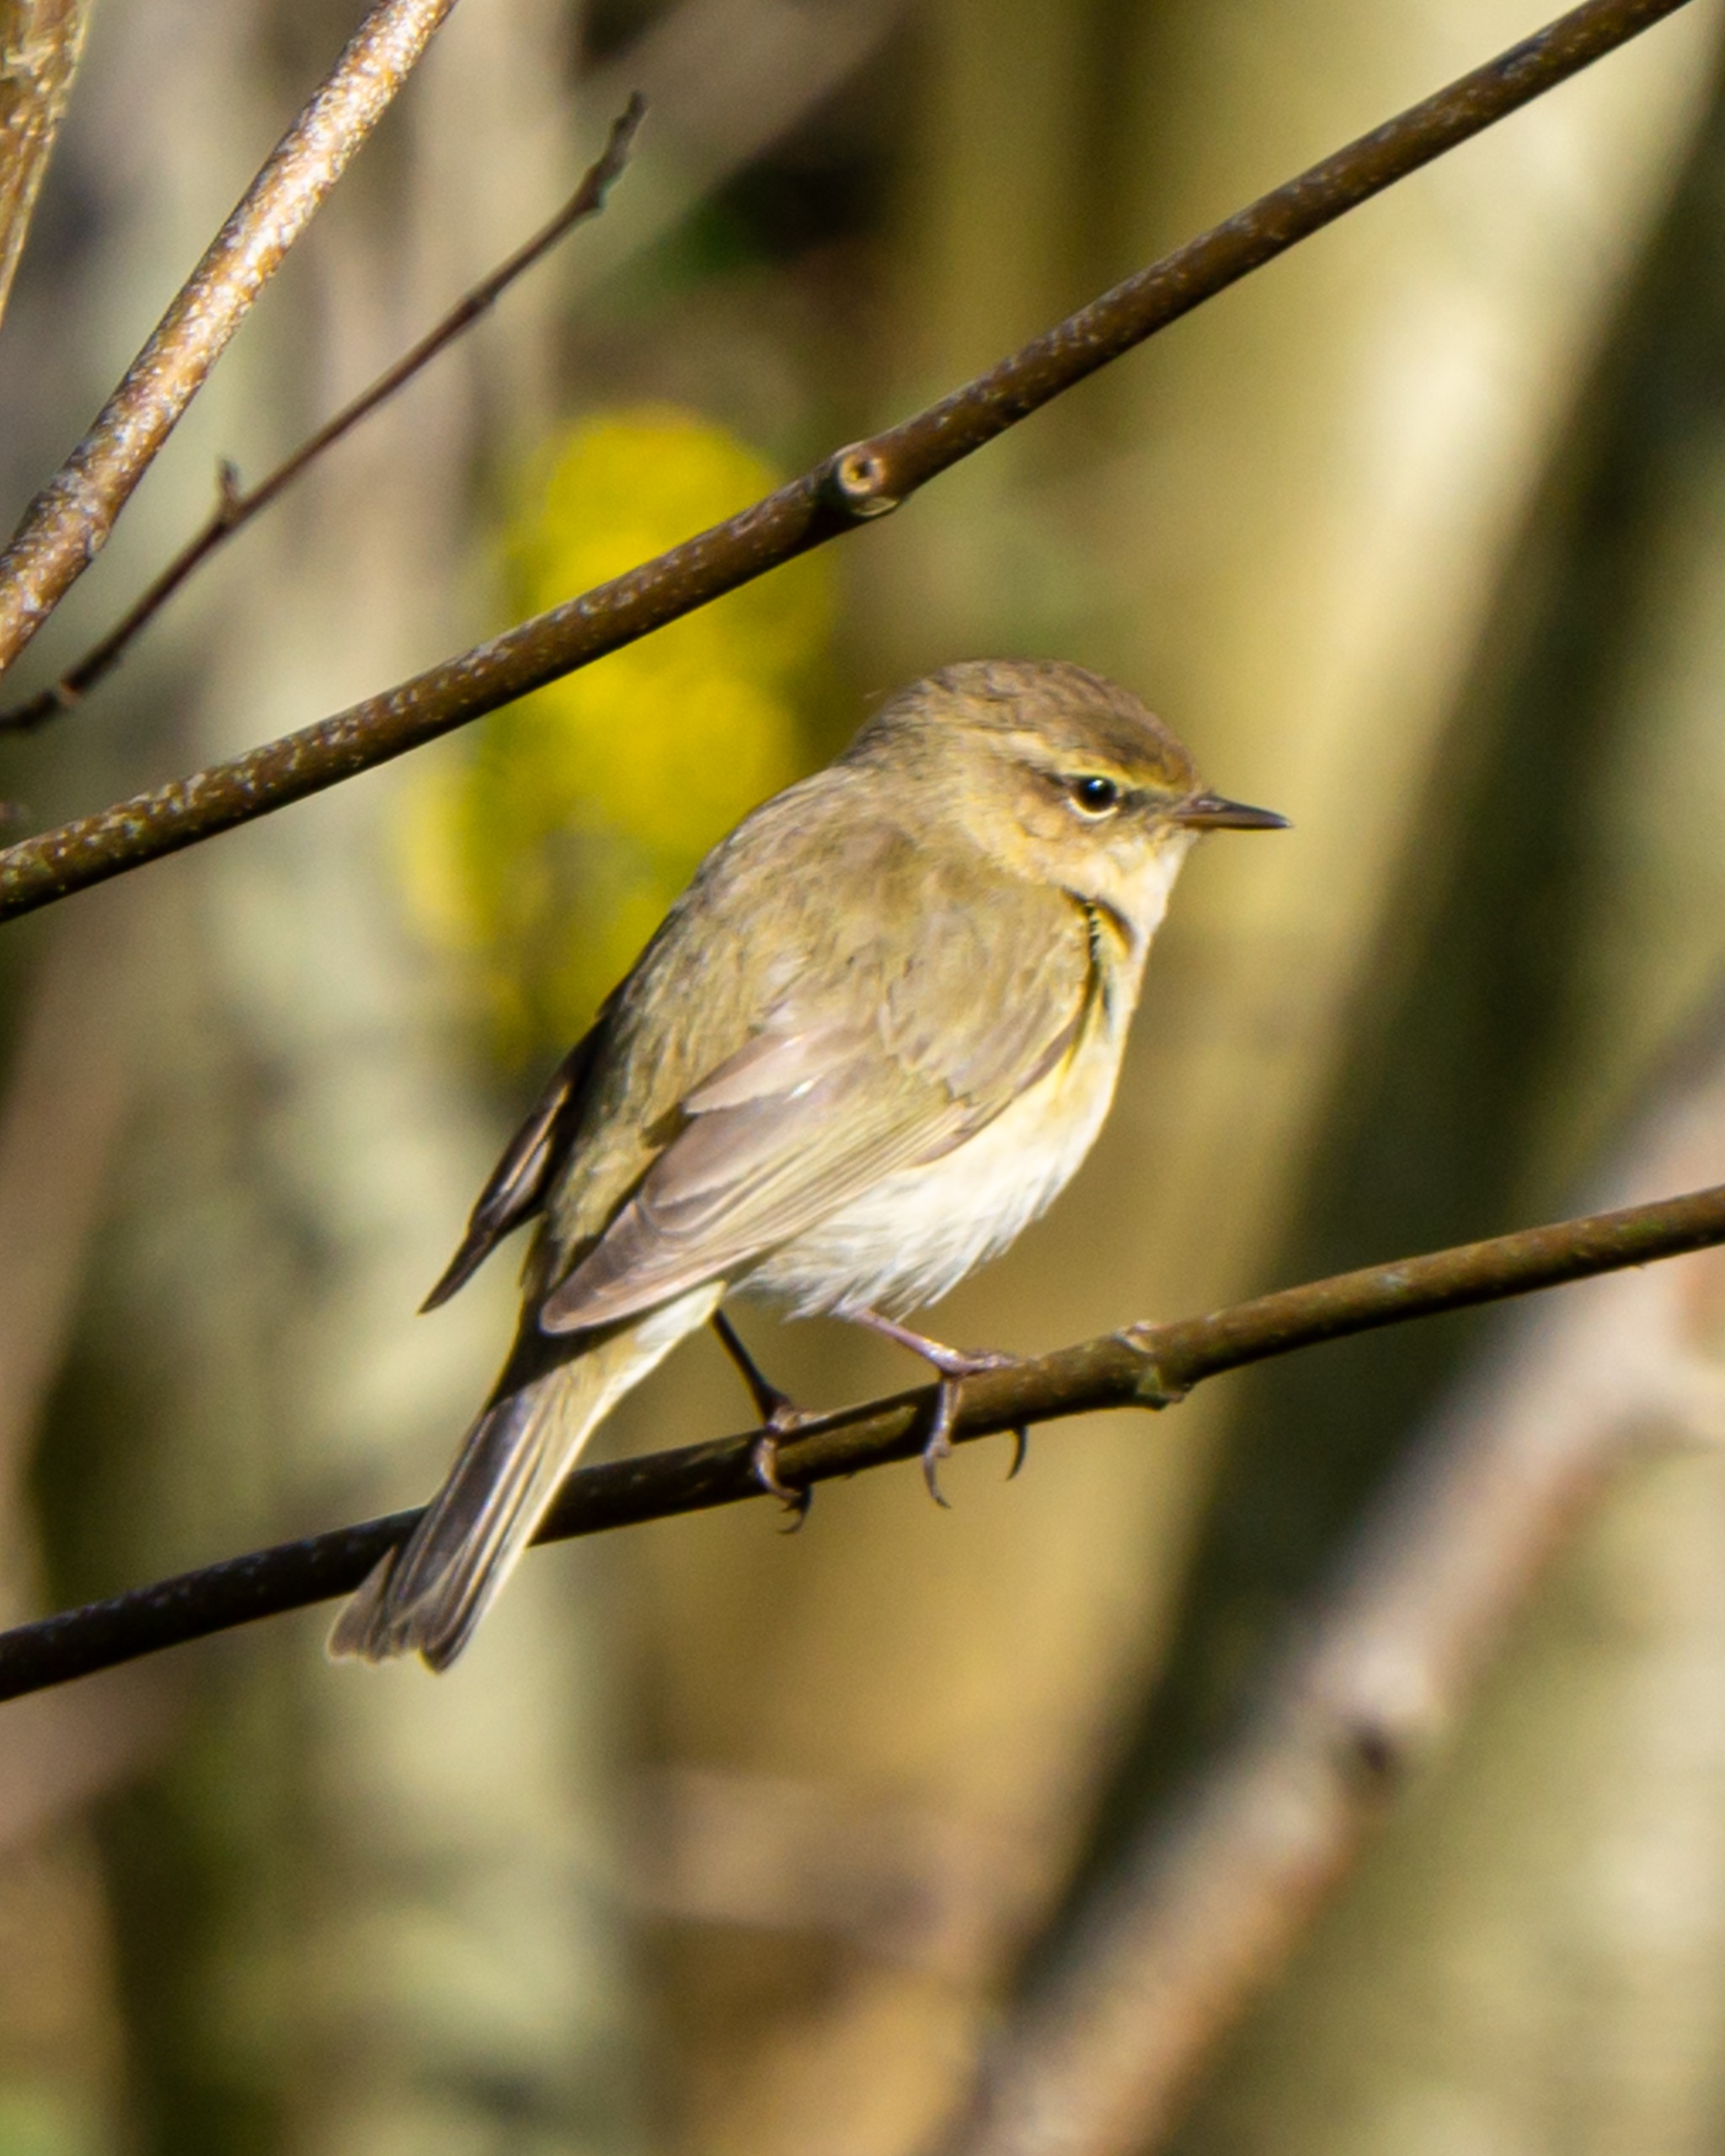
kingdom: Animalia
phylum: Chordata
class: Aves
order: Passeriformes
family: Phylloscopidae
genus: Phylloscopus
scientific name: Phylloscopus collybita
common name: Gransanger
